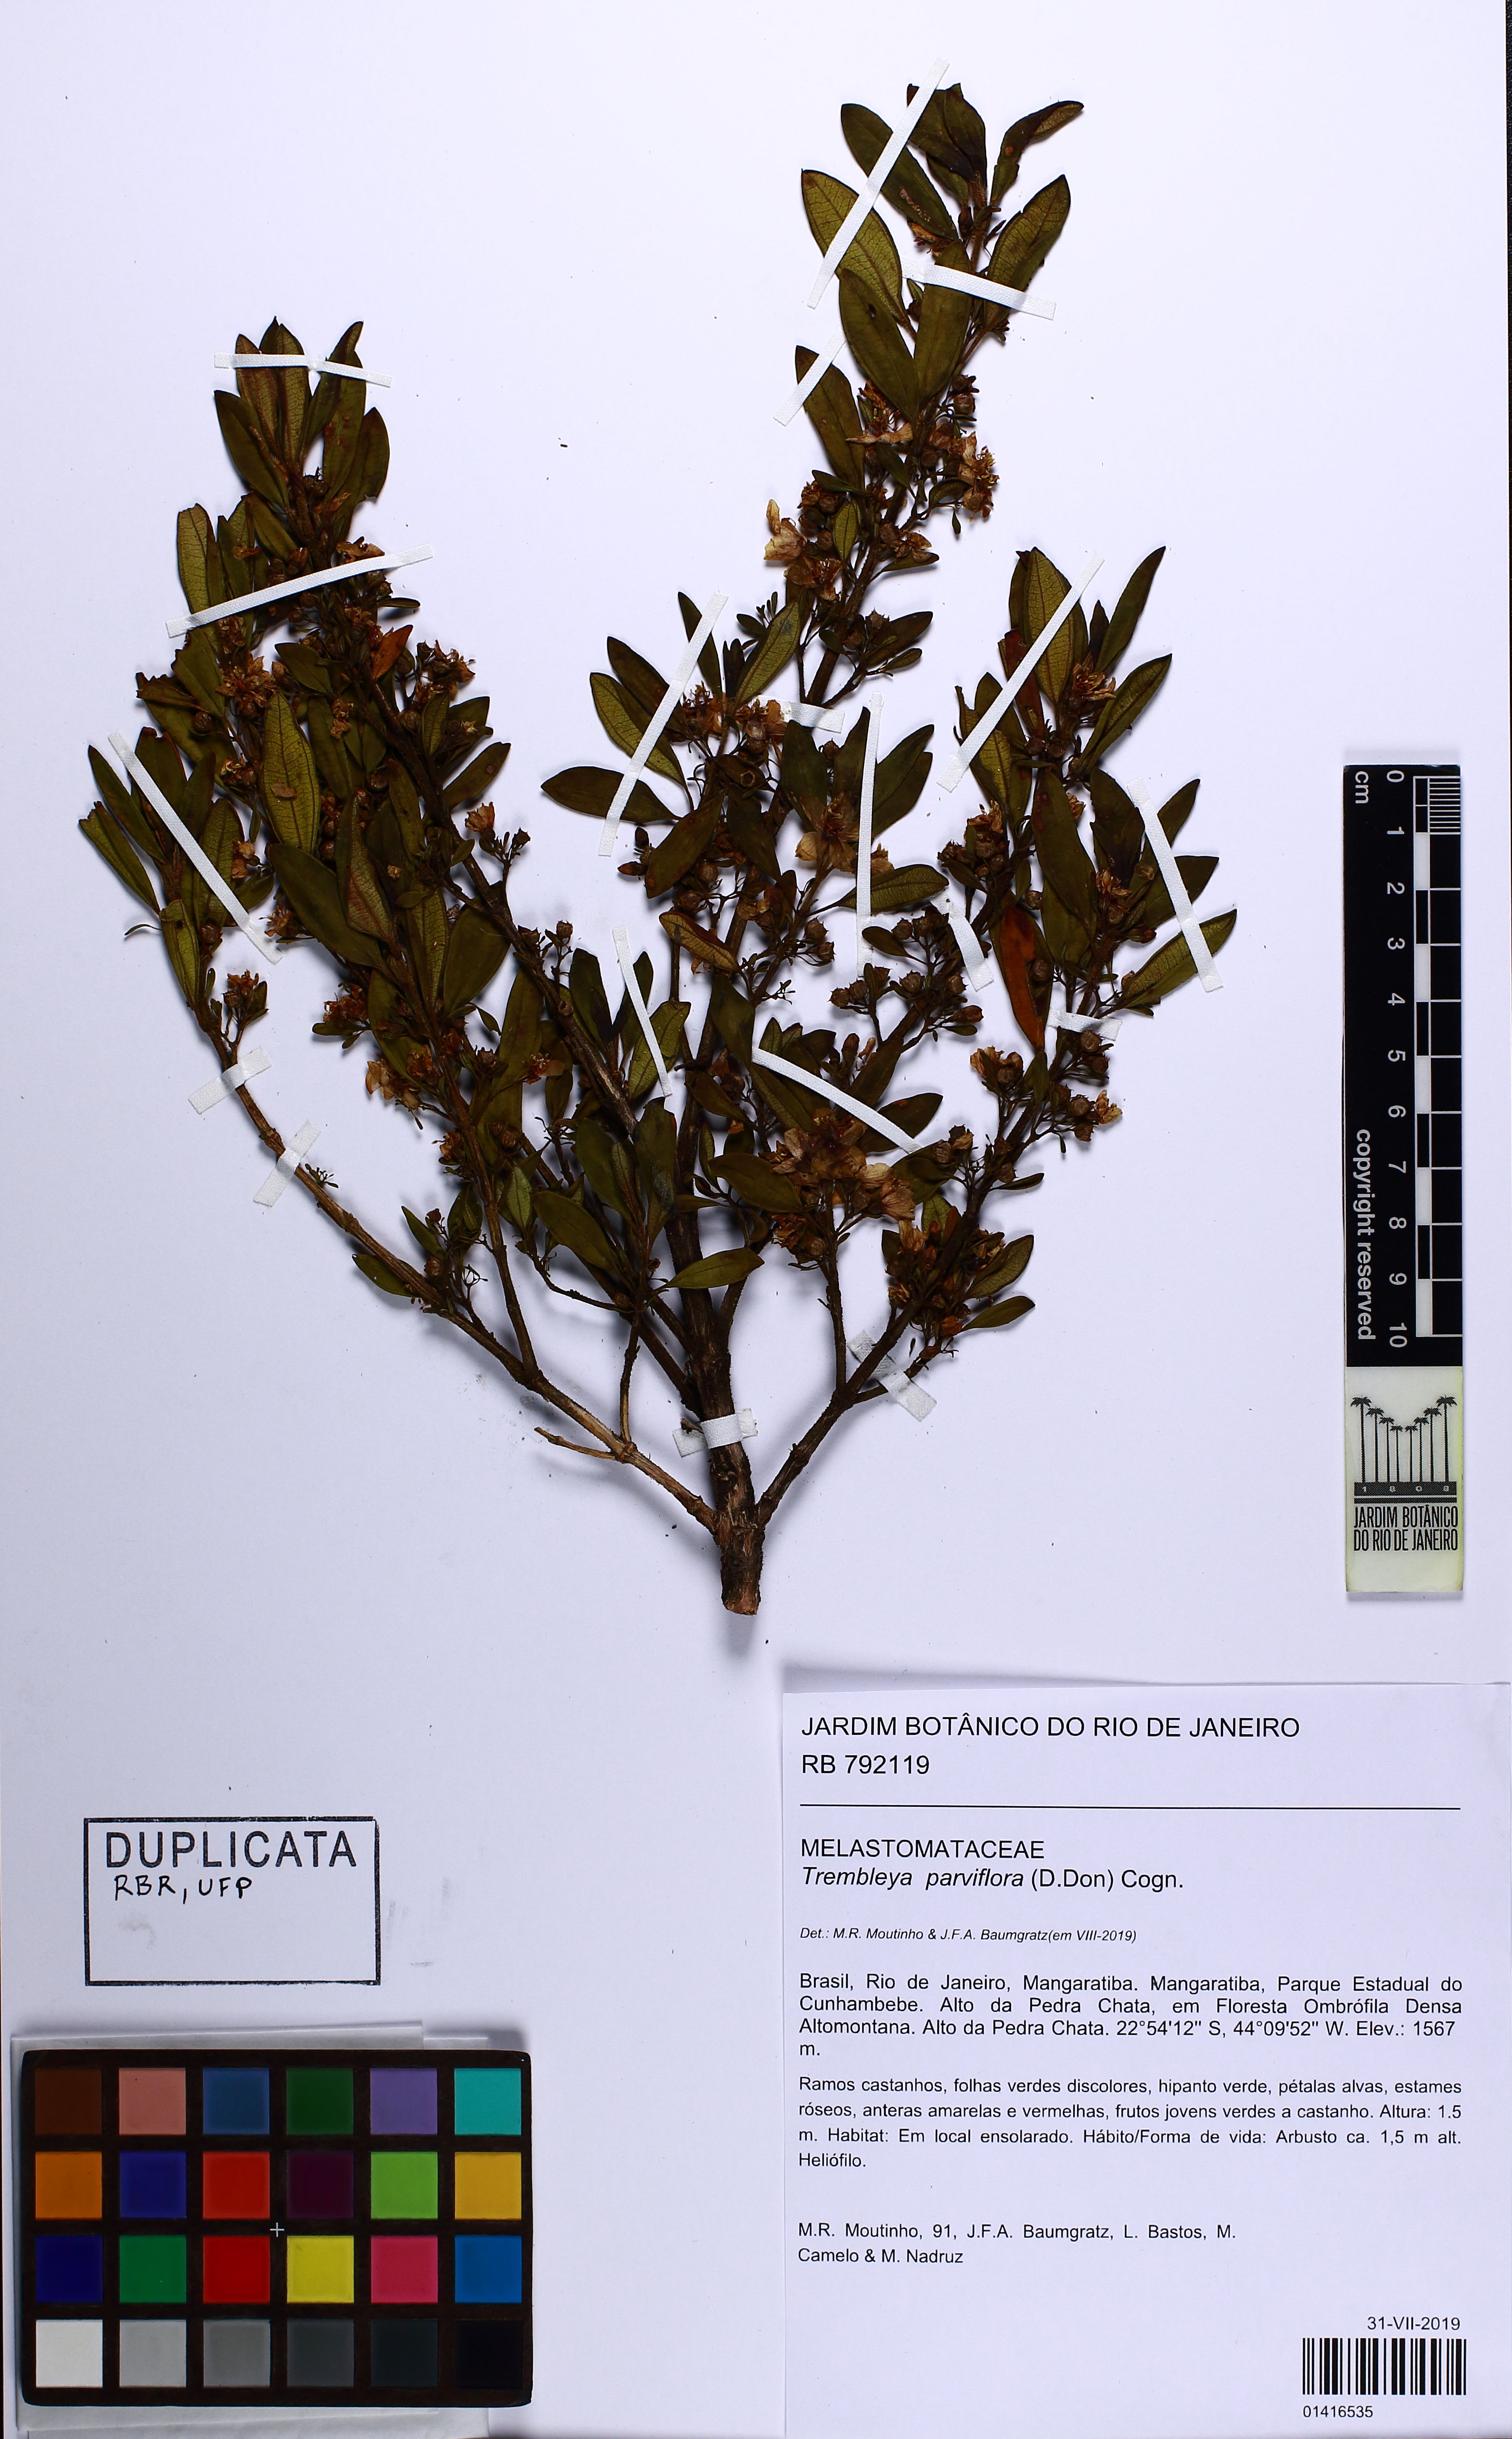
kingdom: Plantae
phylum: Tracheophyta
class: Magnoliopsida
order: Myrtales
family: Melastomataceae
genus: Microlicia
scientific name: Microlicia parviflora
